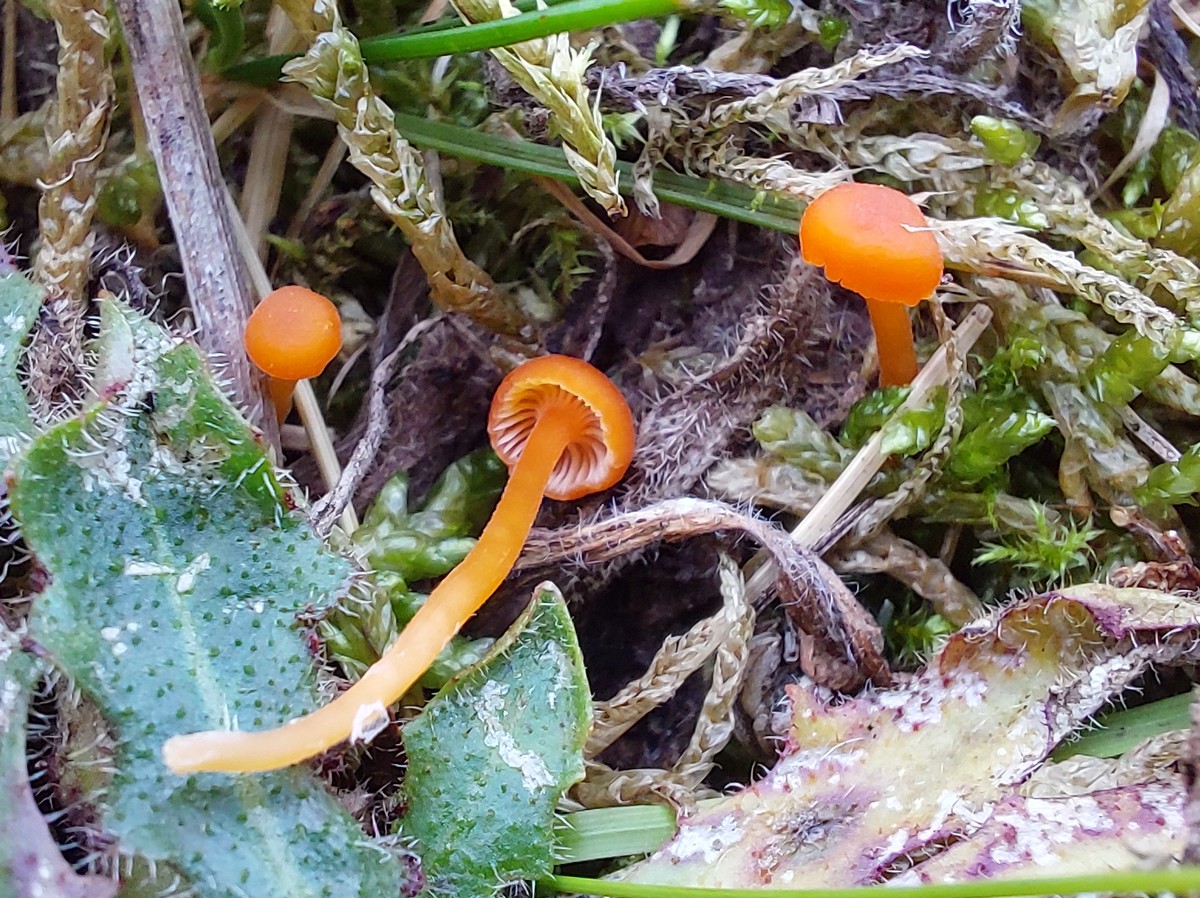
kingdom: Fungi
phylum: Basidiomycota
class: Agaricomycetes
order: Hymenochaetales
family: Rickenellaceae
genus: Rickenella
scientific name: Rickenella fibula
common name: orange mosnavlehat
